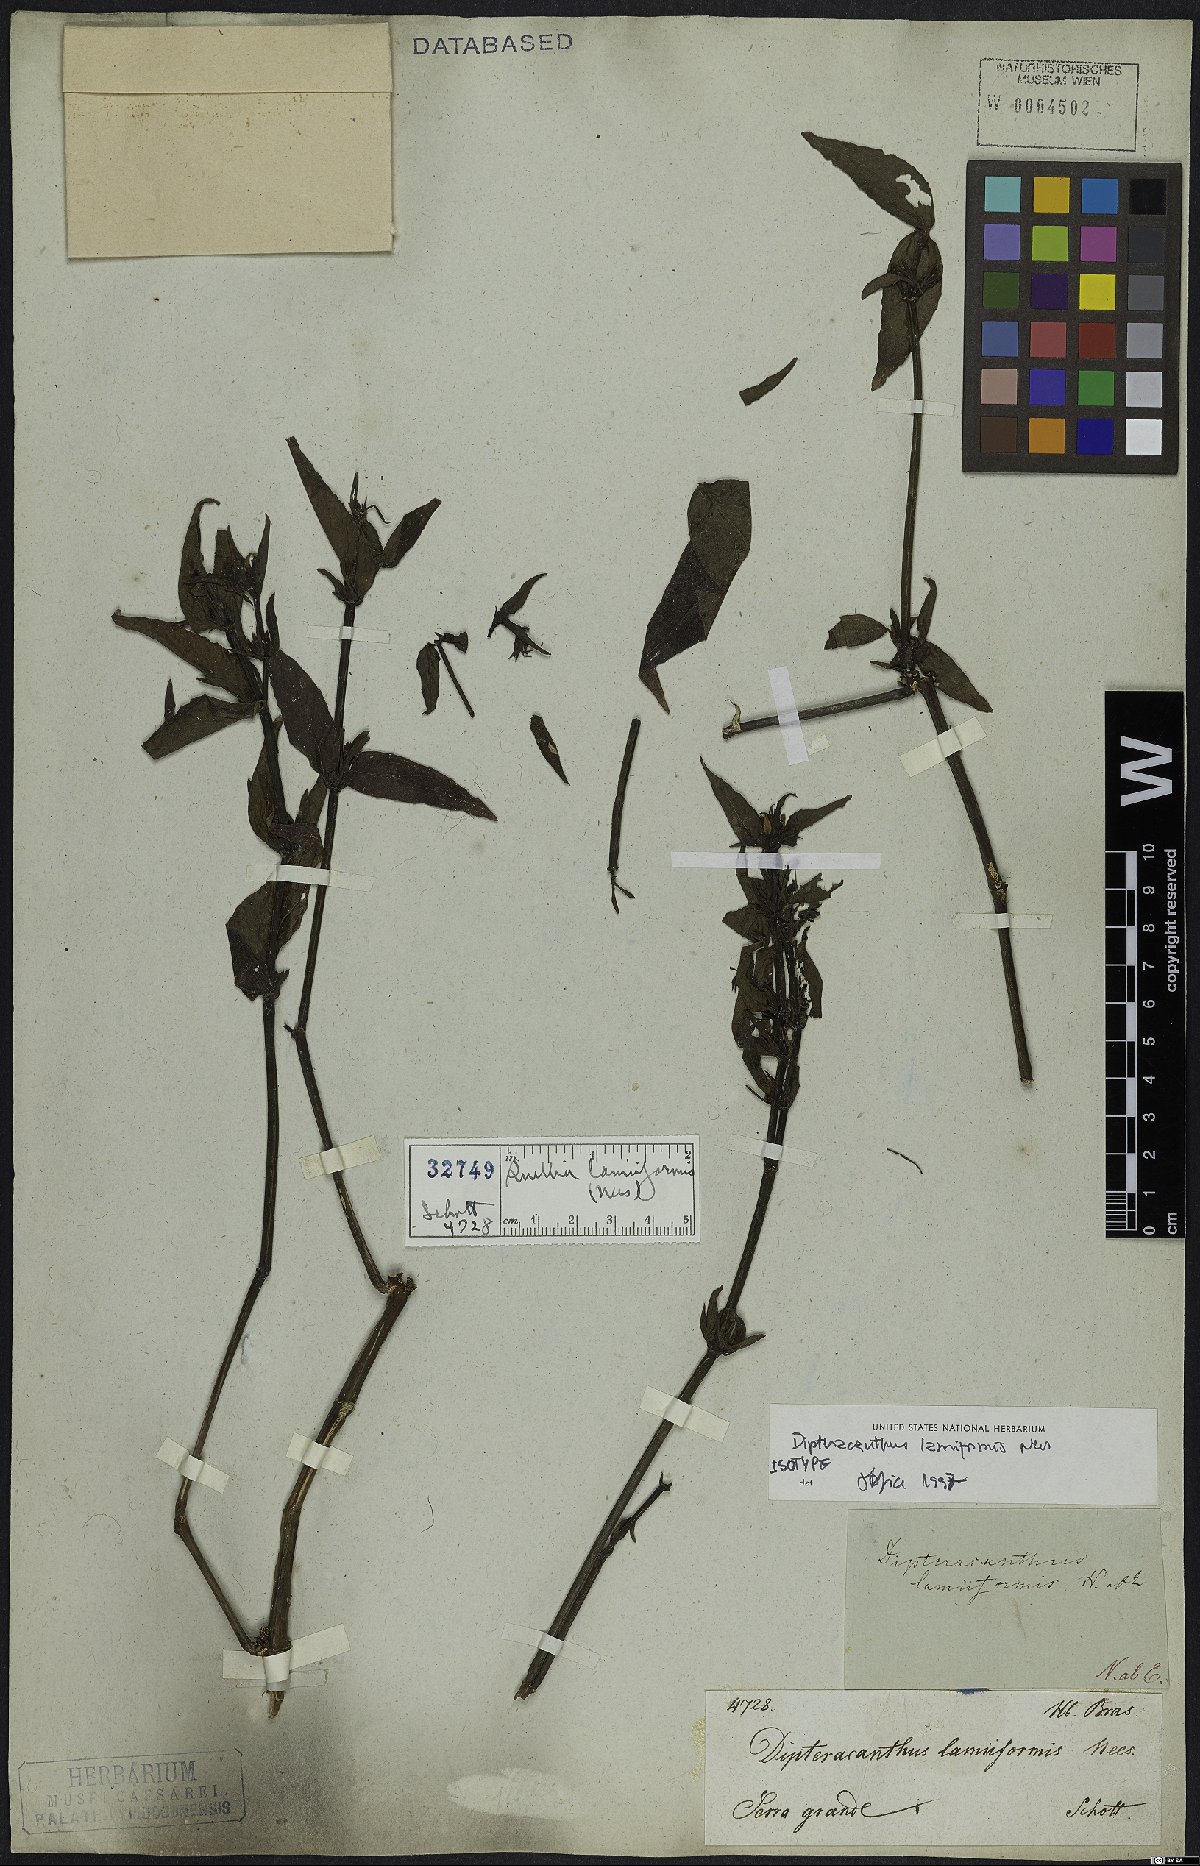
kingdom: Plantae
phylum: Tracheophyta
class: Magnoliopsida
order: Lamiales
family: Acanthaceae
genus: Ruellia
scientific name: Ruellia lamiiformis
